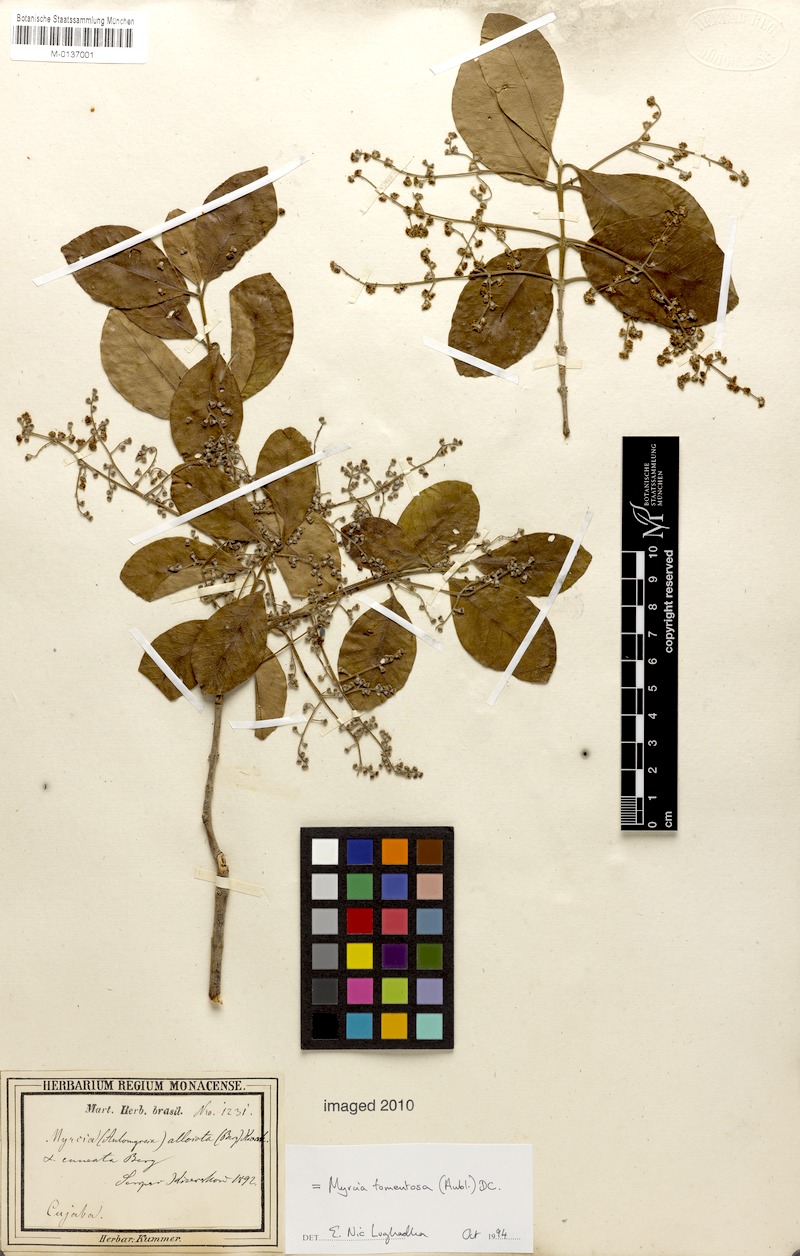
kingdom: Plantae
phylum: Tracheophyta
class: Magnoliopsida
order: Myrtales
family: Myrtaceae
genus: Myrcia
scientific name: Myrcia tomentosa
